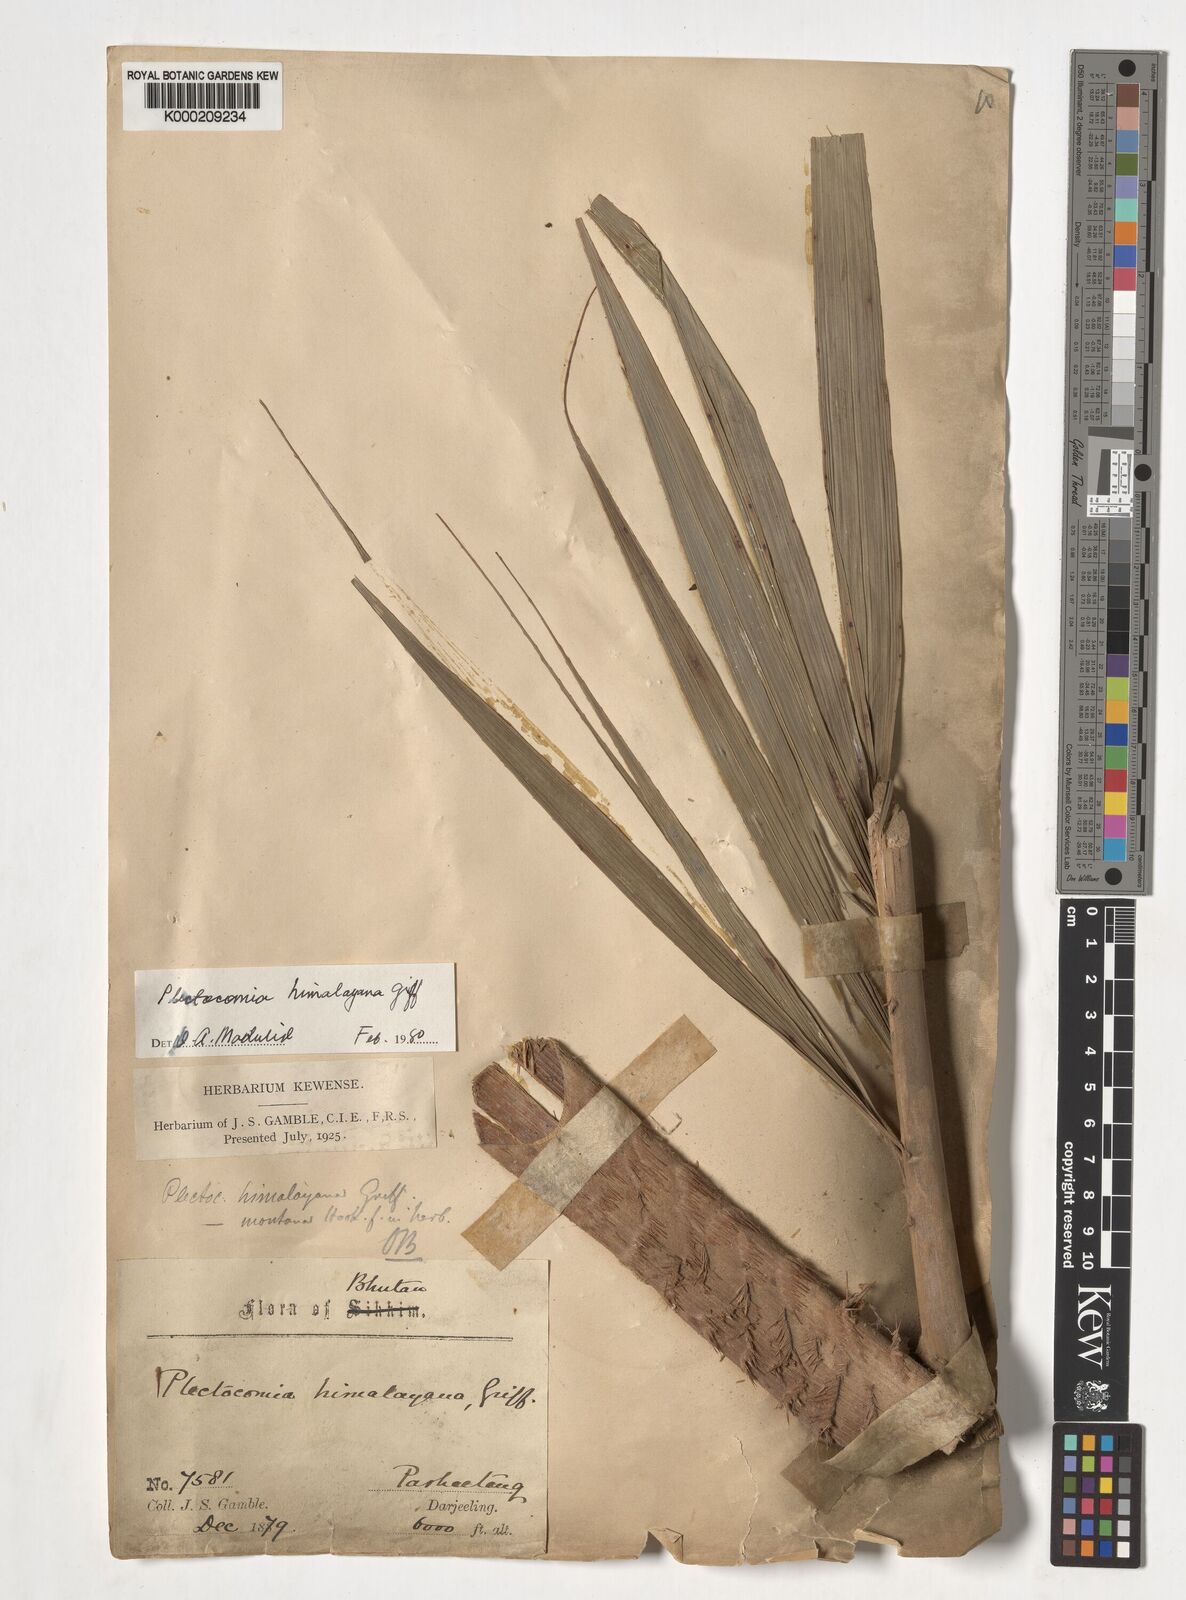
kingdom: Plantae
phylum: Tracheophyta
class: Liliopsida
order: Arecales
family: Arecaceae
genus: Plectocomia
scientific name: Plectocomia himalayana
